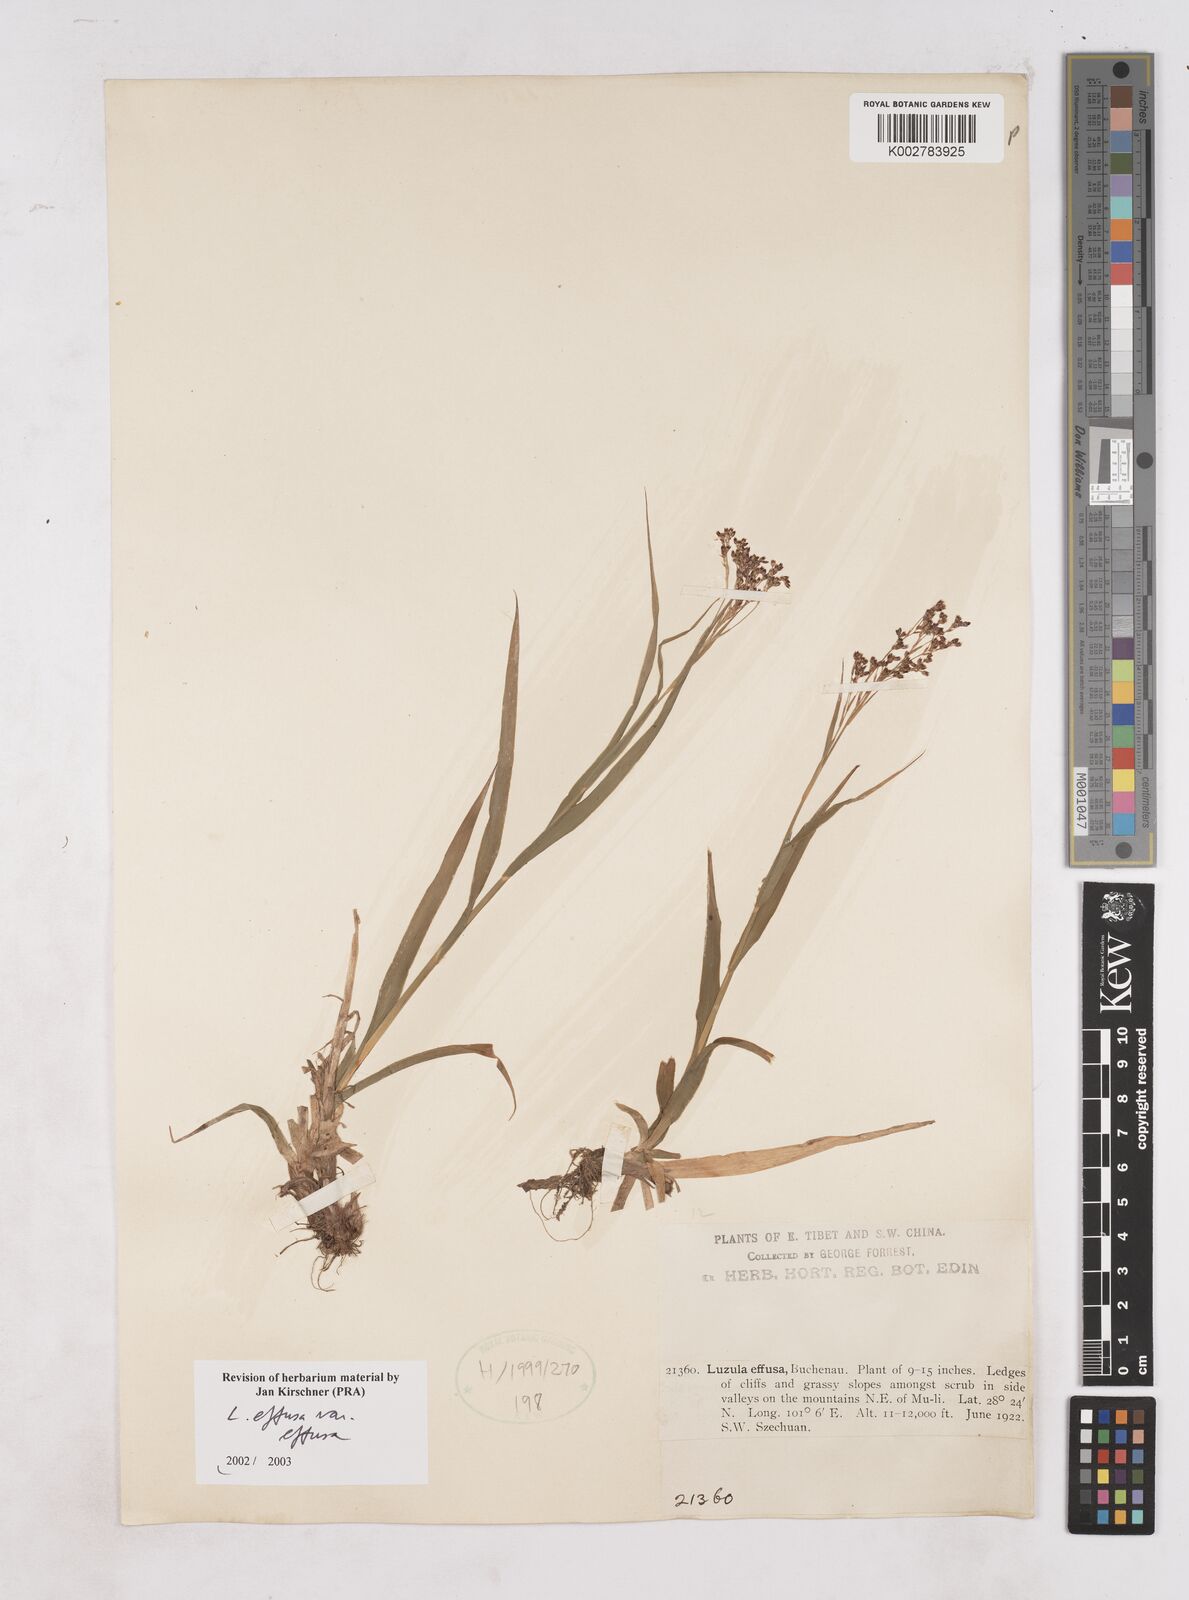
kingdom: Plantae
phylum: Tracheophyta
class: Liliopsida
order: Poales
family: Juncaceae
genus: Luzula
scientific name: Luzula effusa
